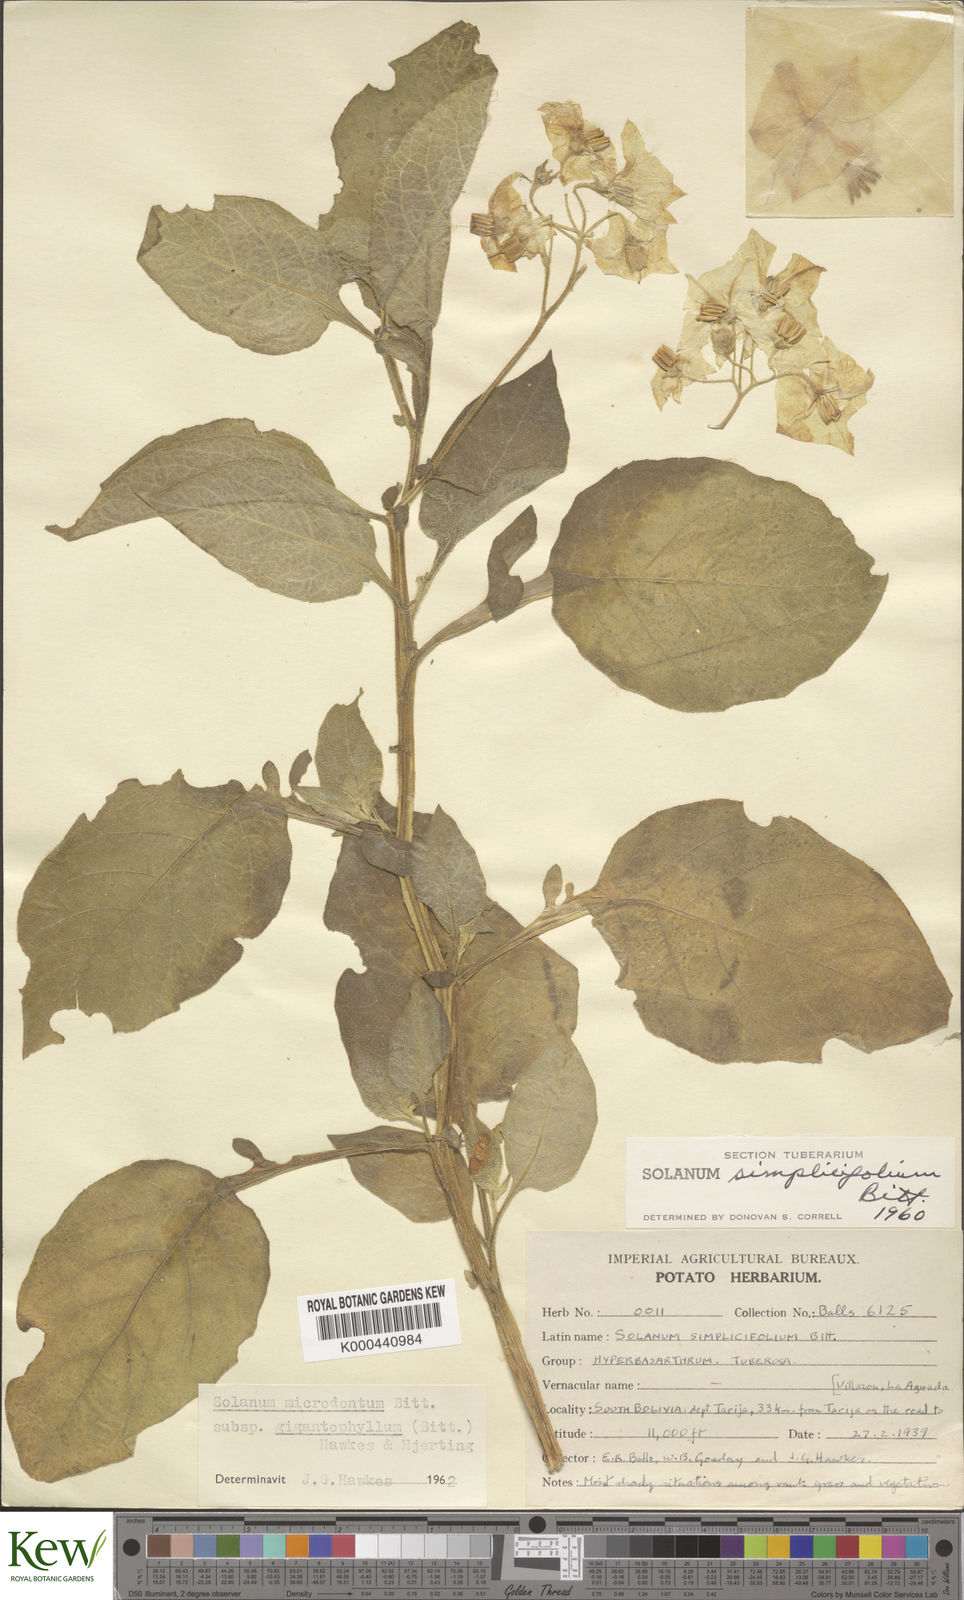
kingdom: Plantae
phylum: Tracheophyta
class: Magnoliopsida
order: Solanales
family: Solanaceae
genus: Solanum
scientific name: Solanum microdontum
